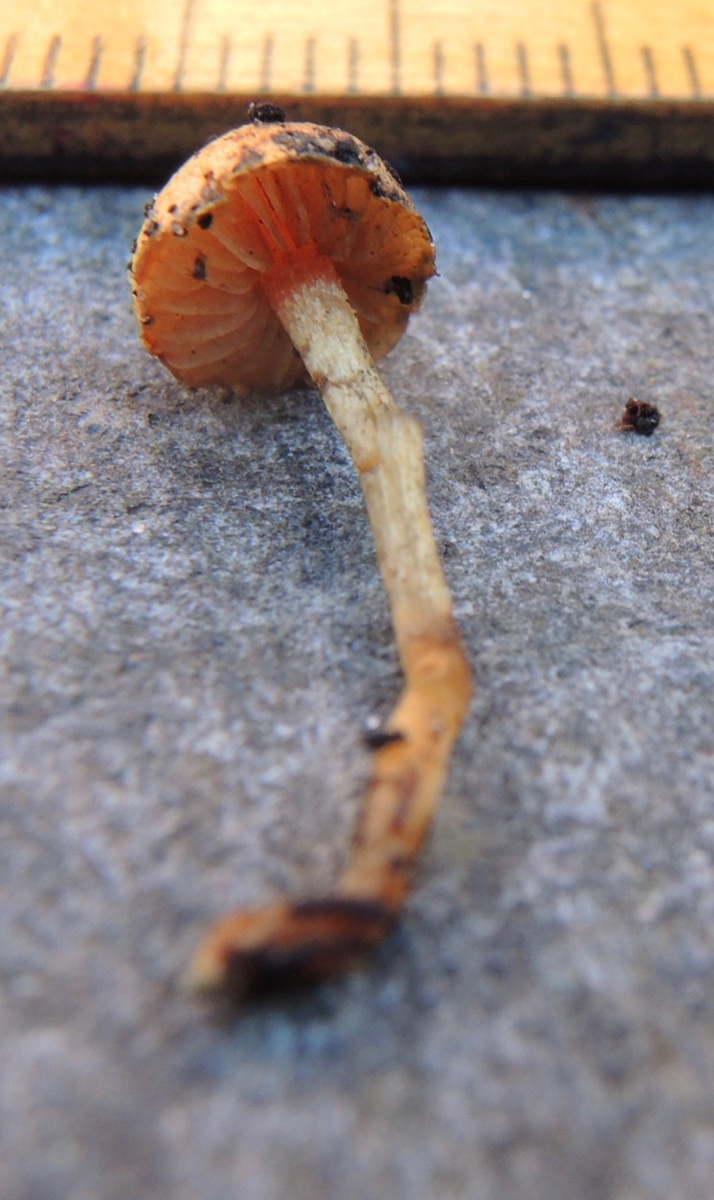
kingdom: Fungi
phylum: Basidiomycota
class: Agaricomycetes
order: Agaricales
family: Strophariaceae
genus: Pholiota
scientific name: Pholiota carbonaria
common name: kul-skælhat
